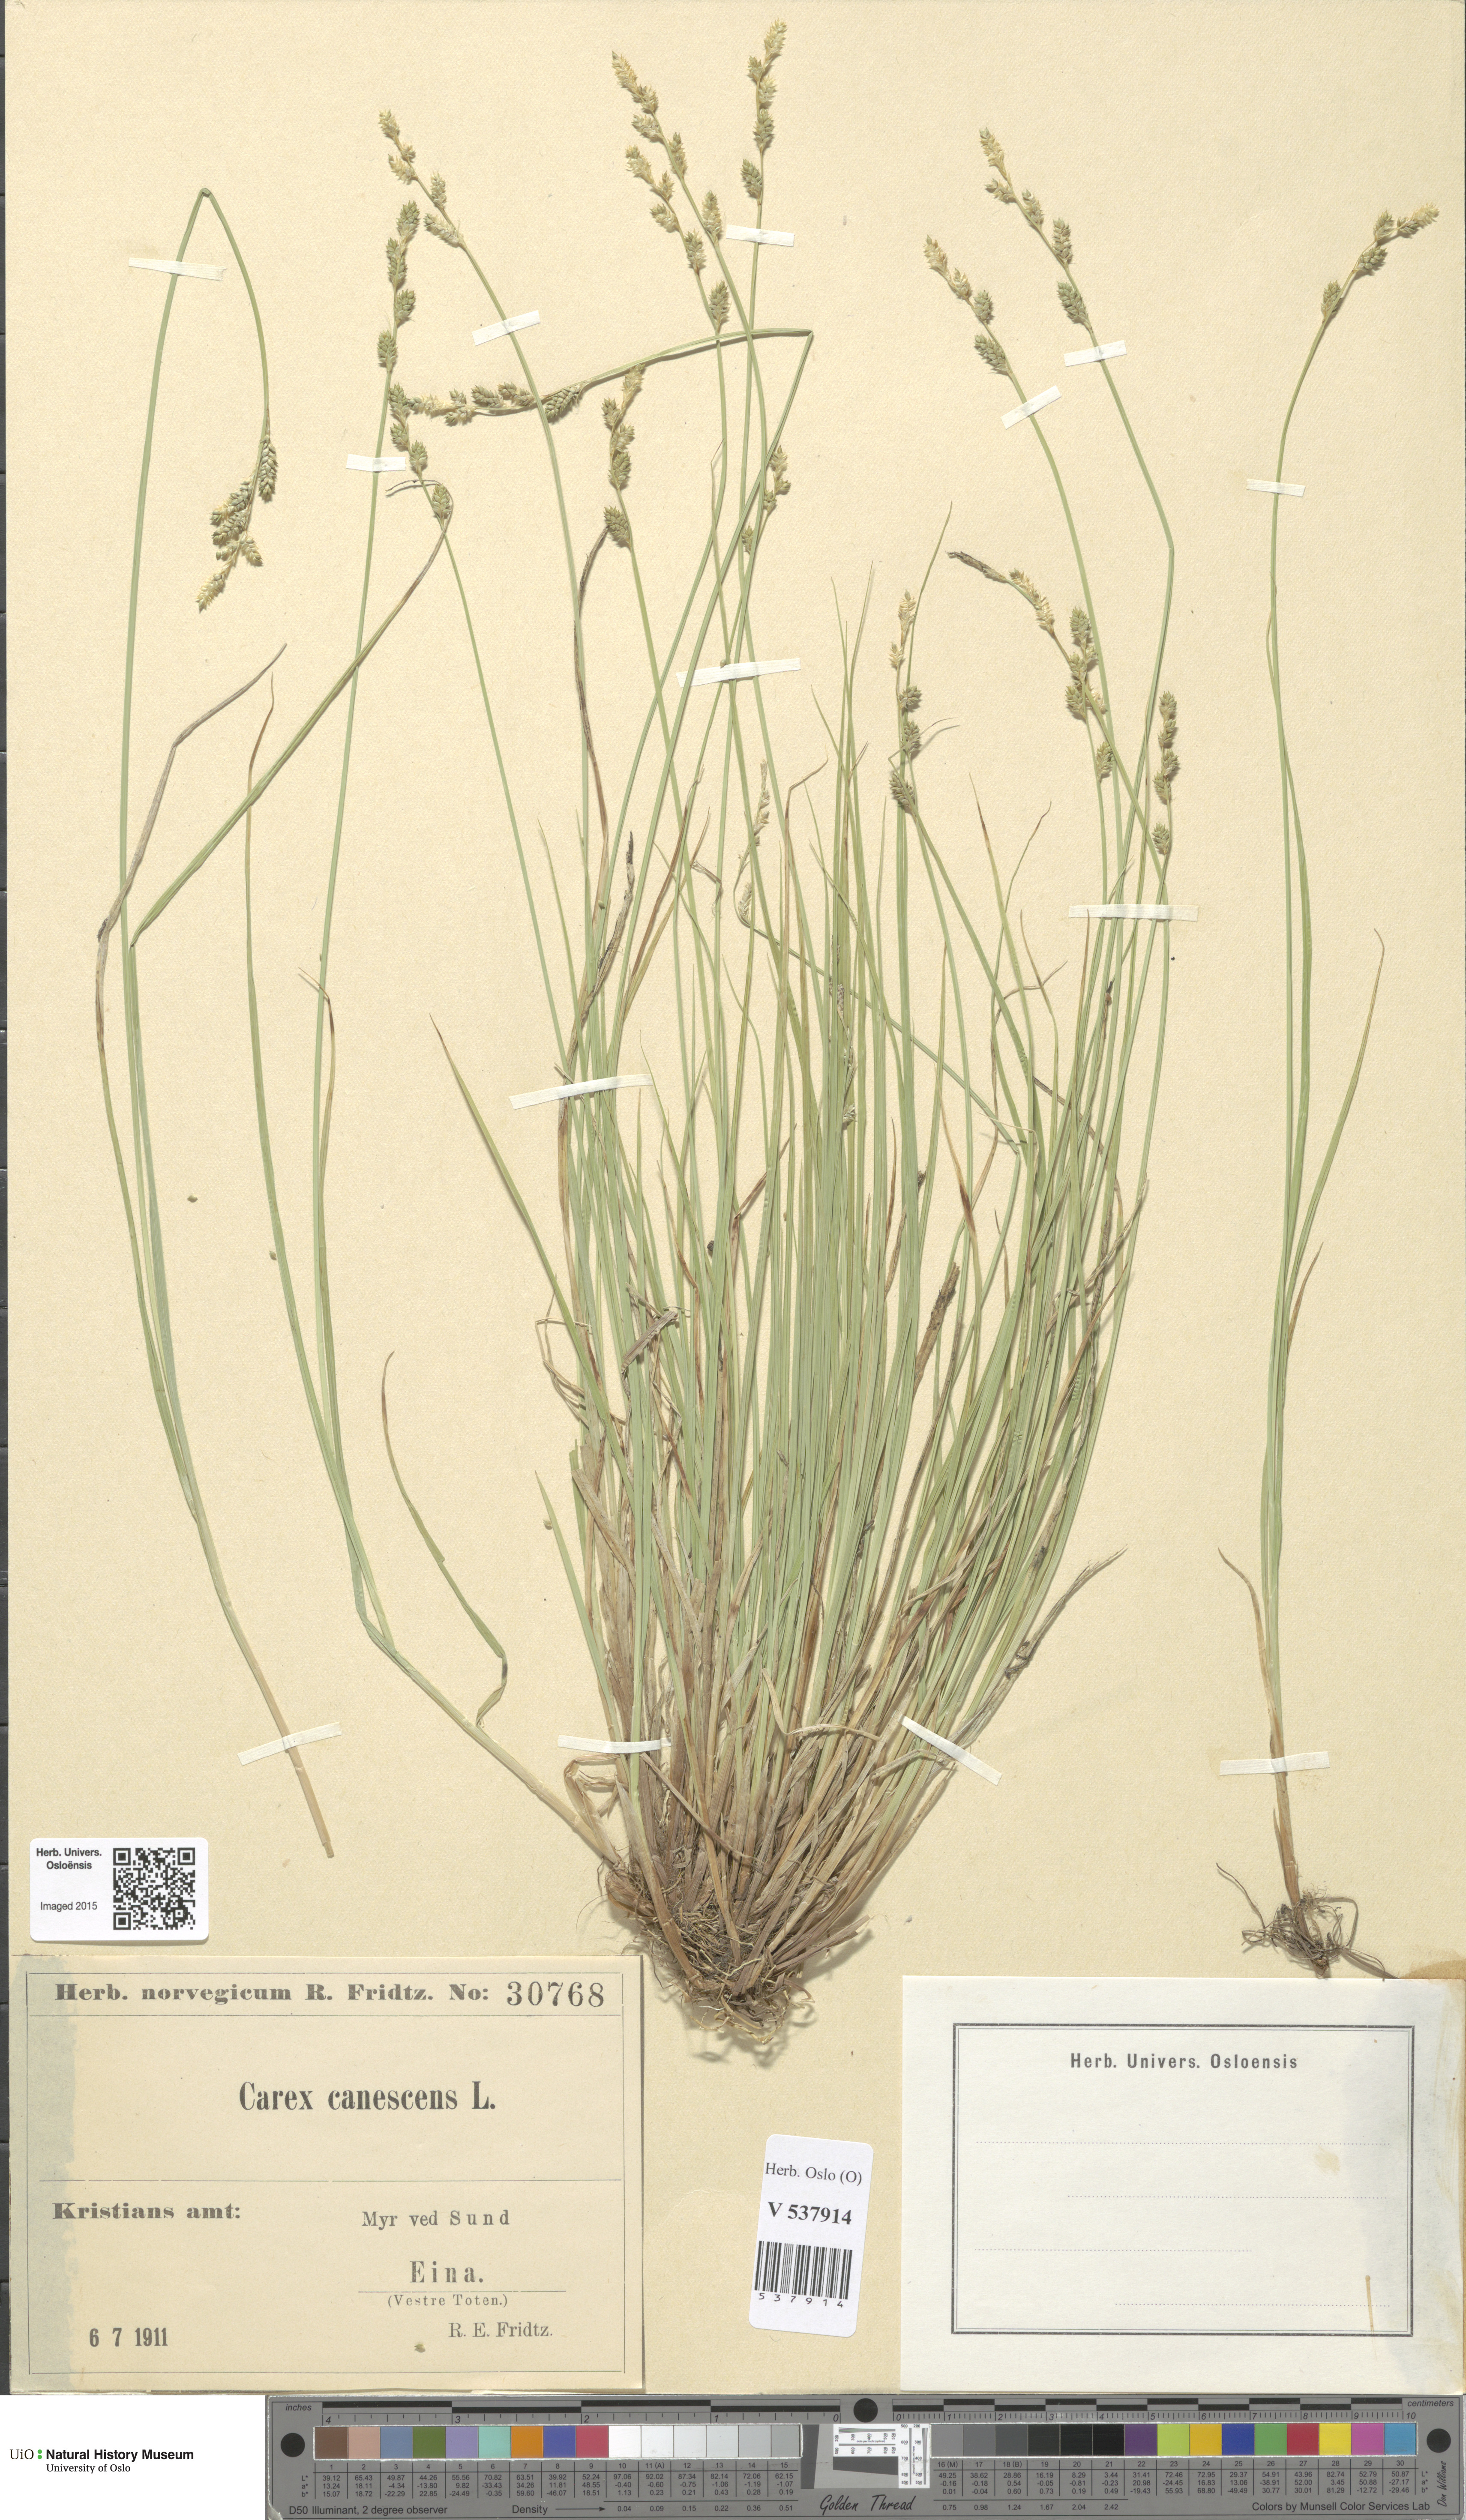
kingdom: Plantae
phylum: Tracheophyta
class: Liliopsida
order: Poales
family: Cyperaceae
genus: Carex
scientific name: Carex canescens
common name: White sedge
